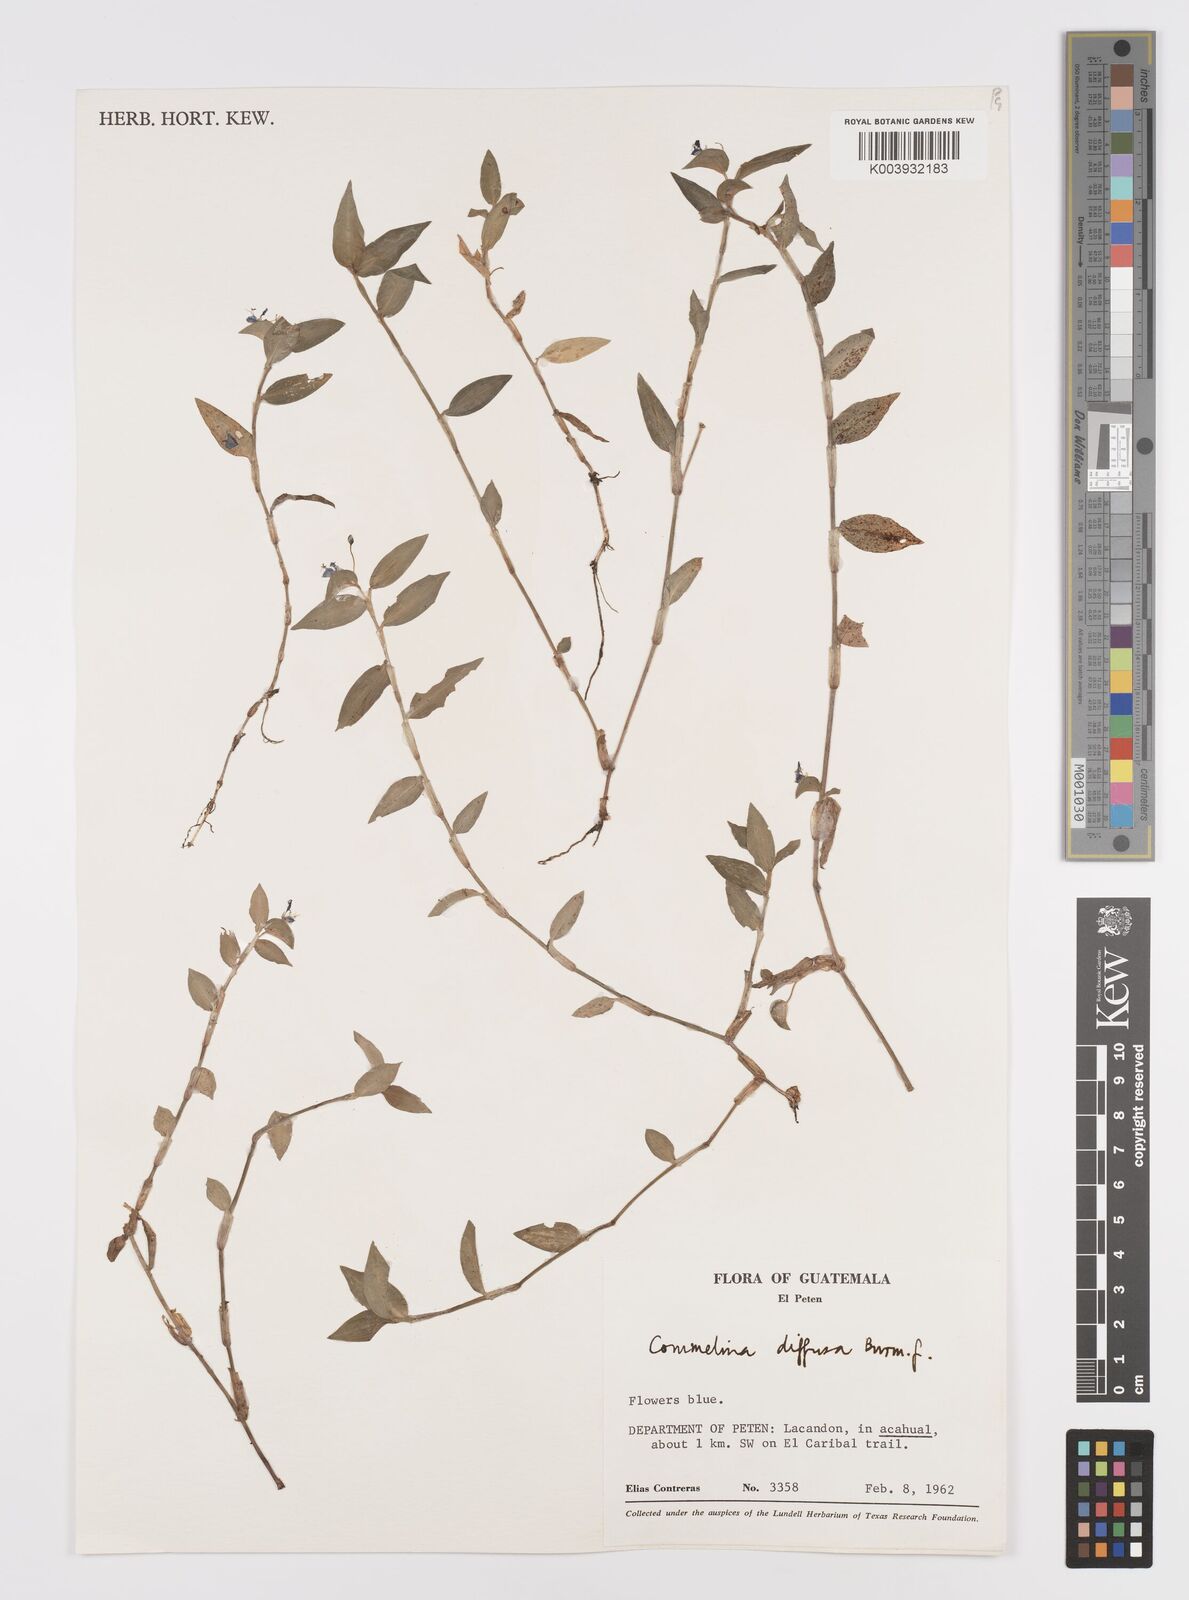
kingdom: Plantae
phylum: Tracheophyta
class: Liliopsida
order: Commelinales
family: Commelinaceae
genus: Commelina
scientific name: Commelina diffusa
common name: Climbing dayflower
